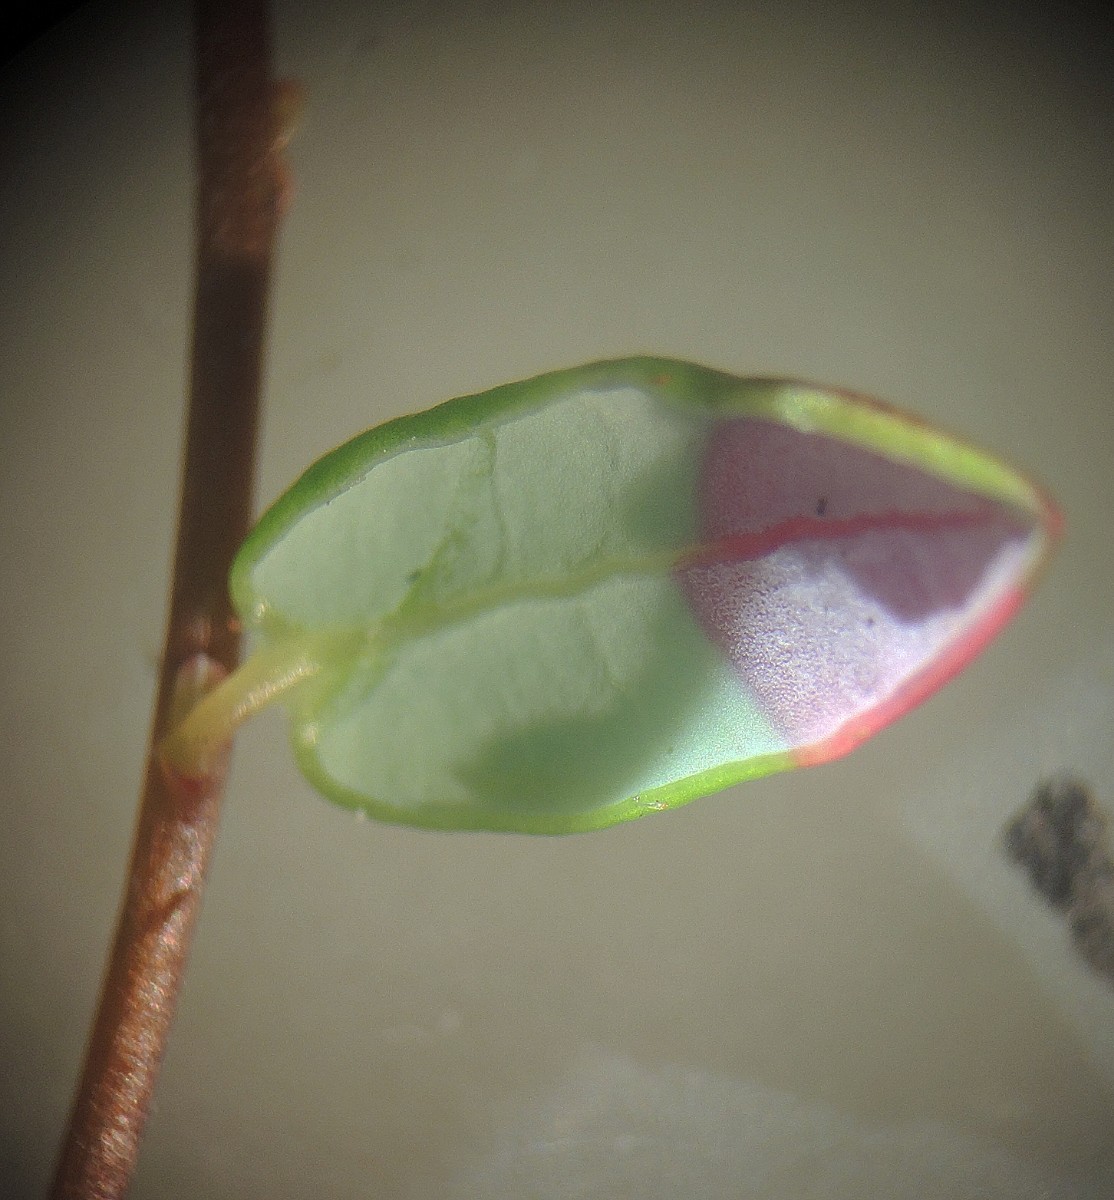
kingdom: Fungi
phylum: Basidiomycota
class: Exobasidiomycetes
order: Exobasidiales
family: Exobasidiaceae
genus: Exobasidium
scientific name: Exobasidium rostrupii
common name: tranebærblad-bøllesvamp
